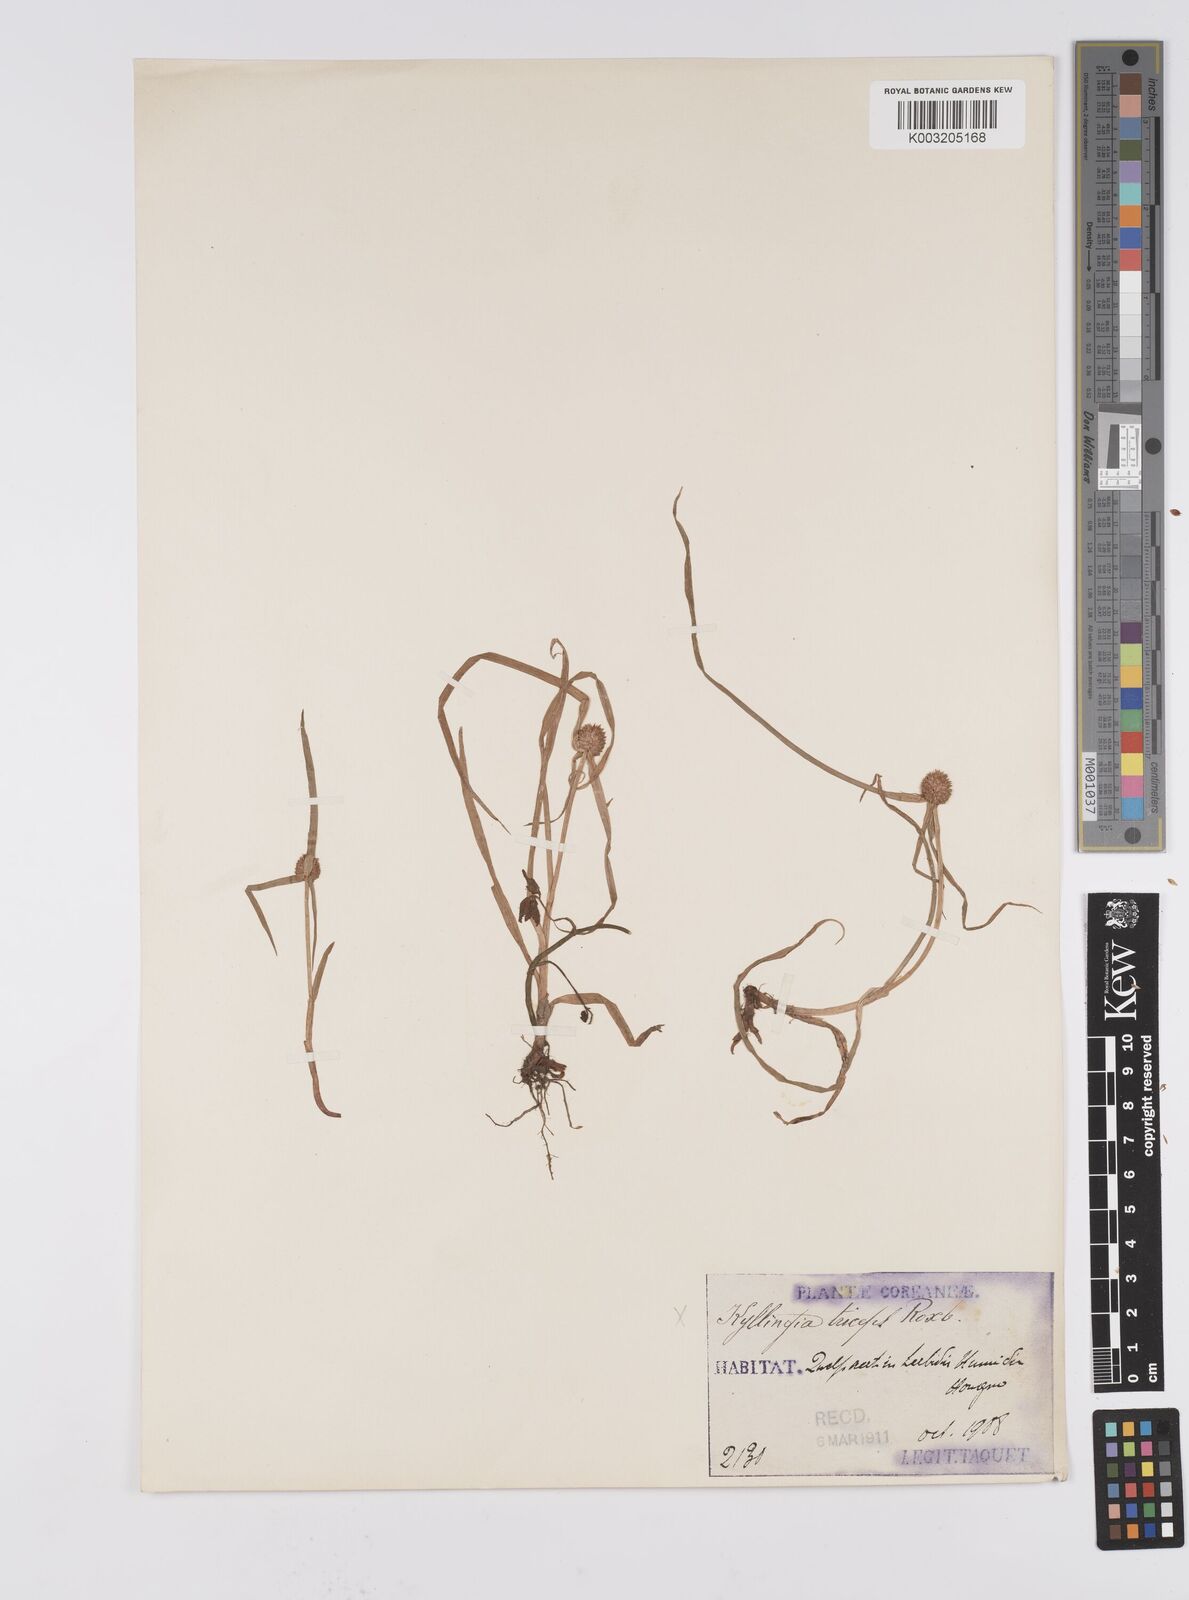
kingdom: Plantae
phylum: Tracheophyta
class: Liliopsida
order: Poales
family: Cyperaceae
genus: Cyperus
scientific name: Cyperus
